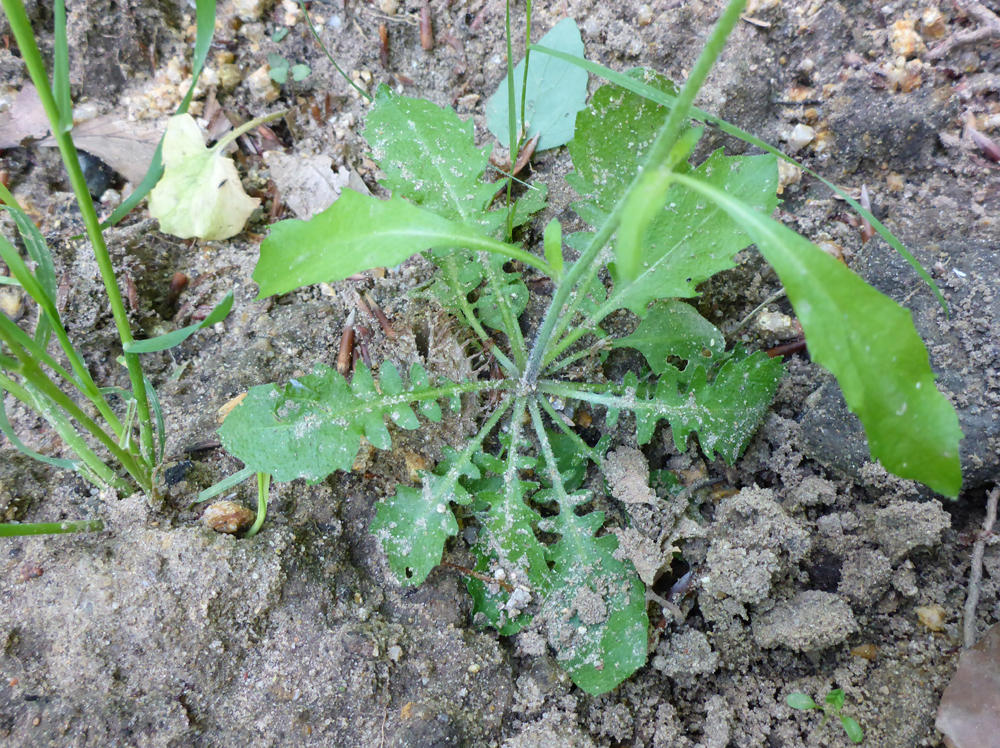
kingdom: Plantae
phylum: Tracheophyta
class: Magnoliopsida
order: Brassicales
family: Brassicaceae
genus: Arabidopsis
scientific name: Arabidopsis arenosa
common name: Sand rock-cress
